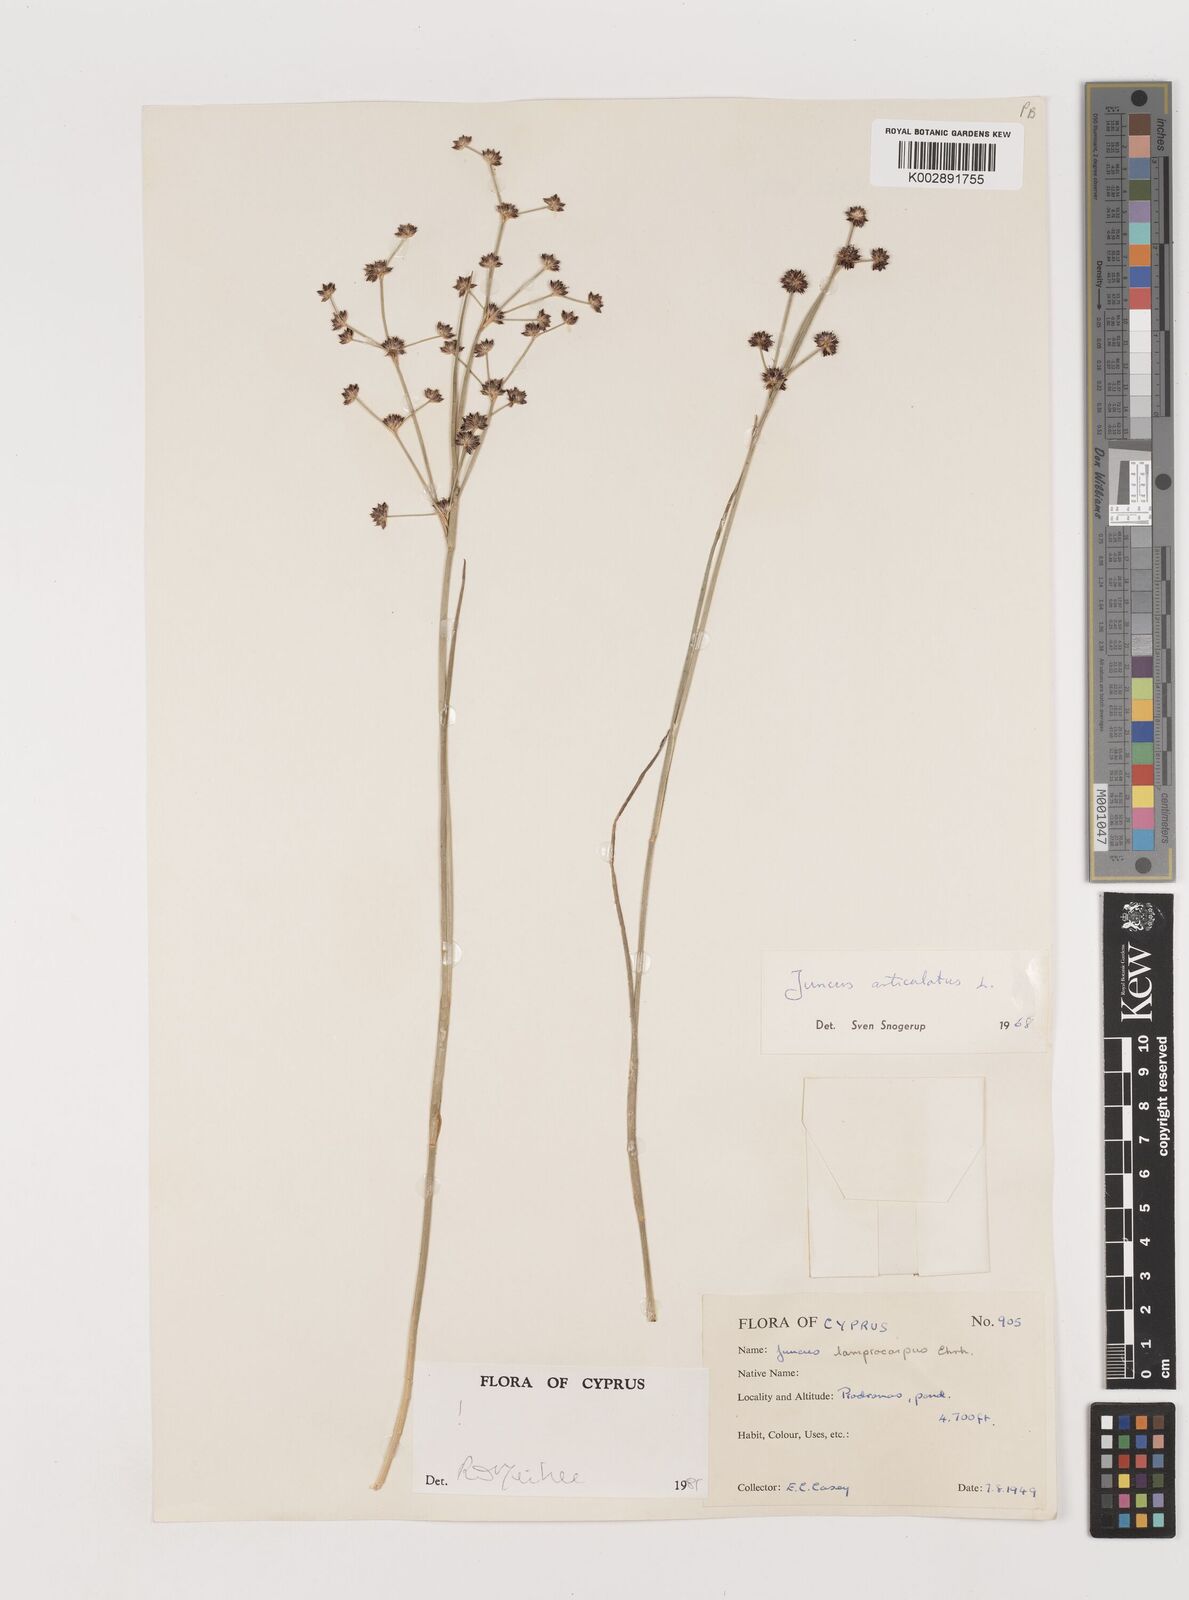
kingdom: Plantae
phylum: Tracheophyta
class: Liliopsida
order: Poales
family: Juncaceae
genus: Juncus
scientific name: Juncus articulatus
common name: Jointed rush
